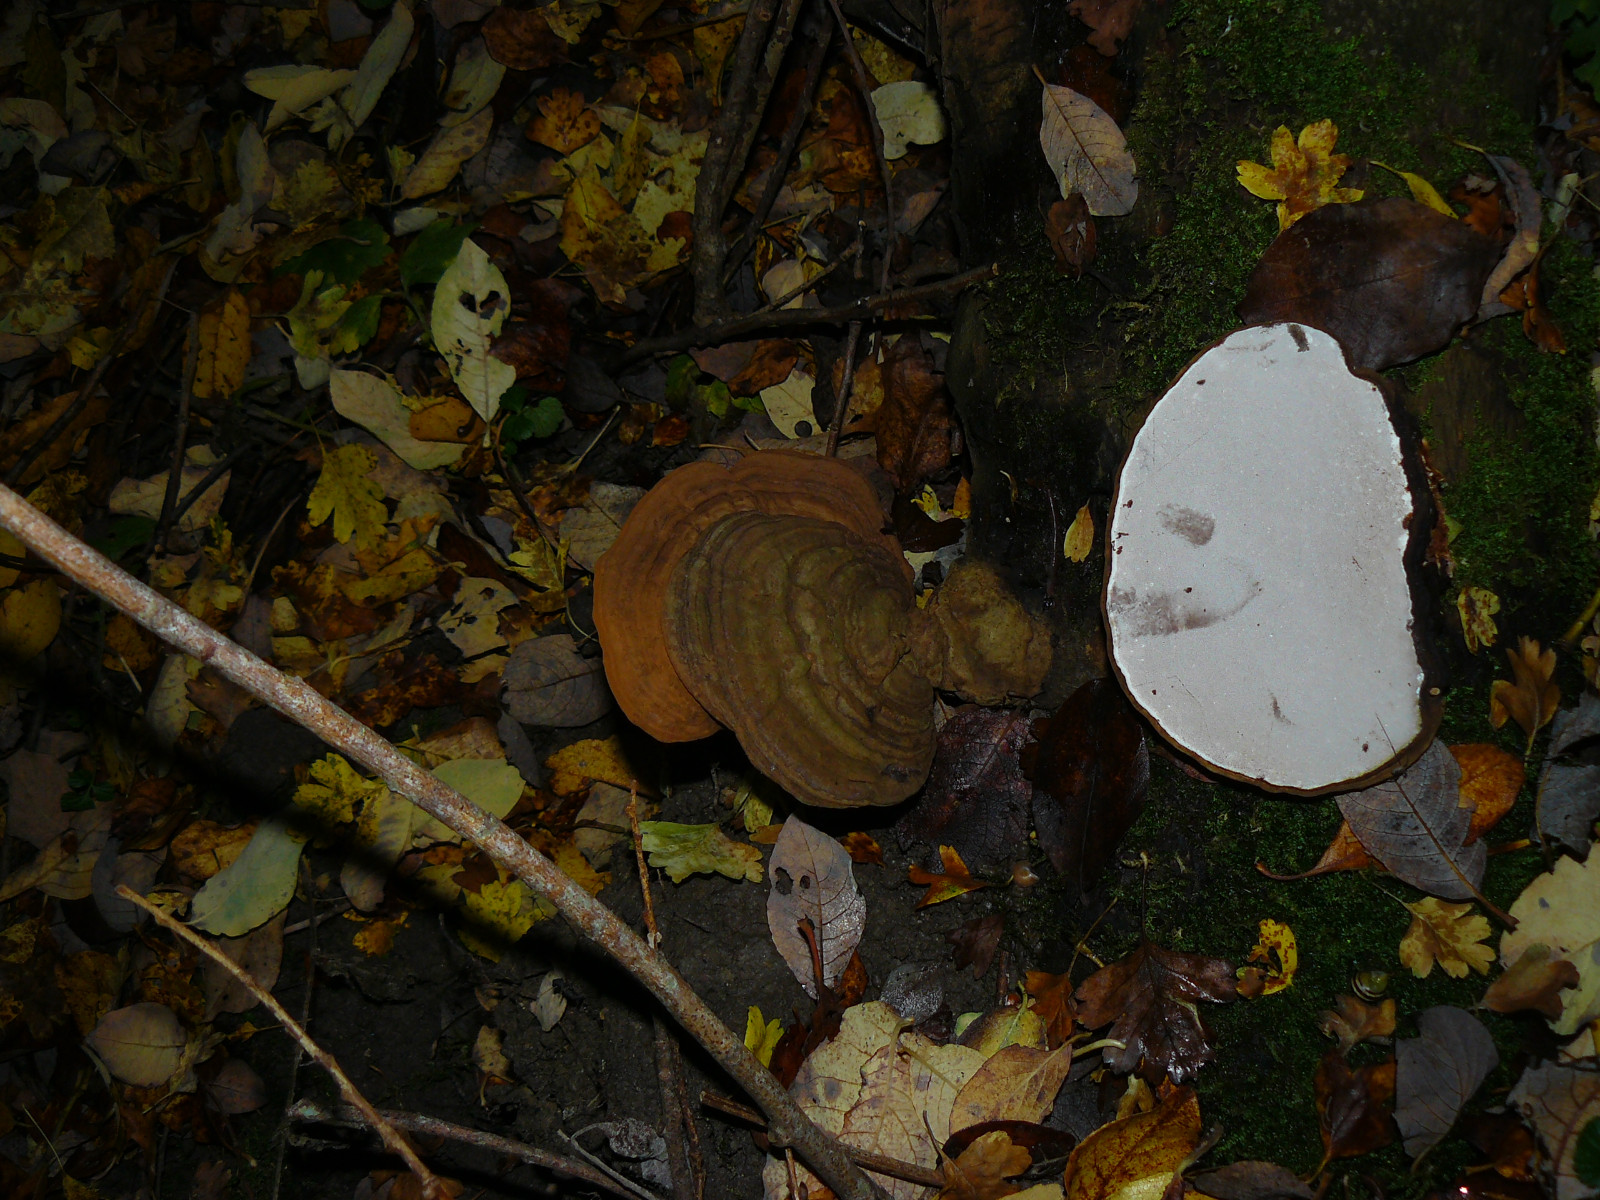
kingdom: Fungi
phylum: Basidiomycota
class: Agaricomycetes
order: Polyporales
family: Polyporaceae
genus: Ganoderma
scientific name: Ganoderma applanatum
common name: flad lakporesvamp
